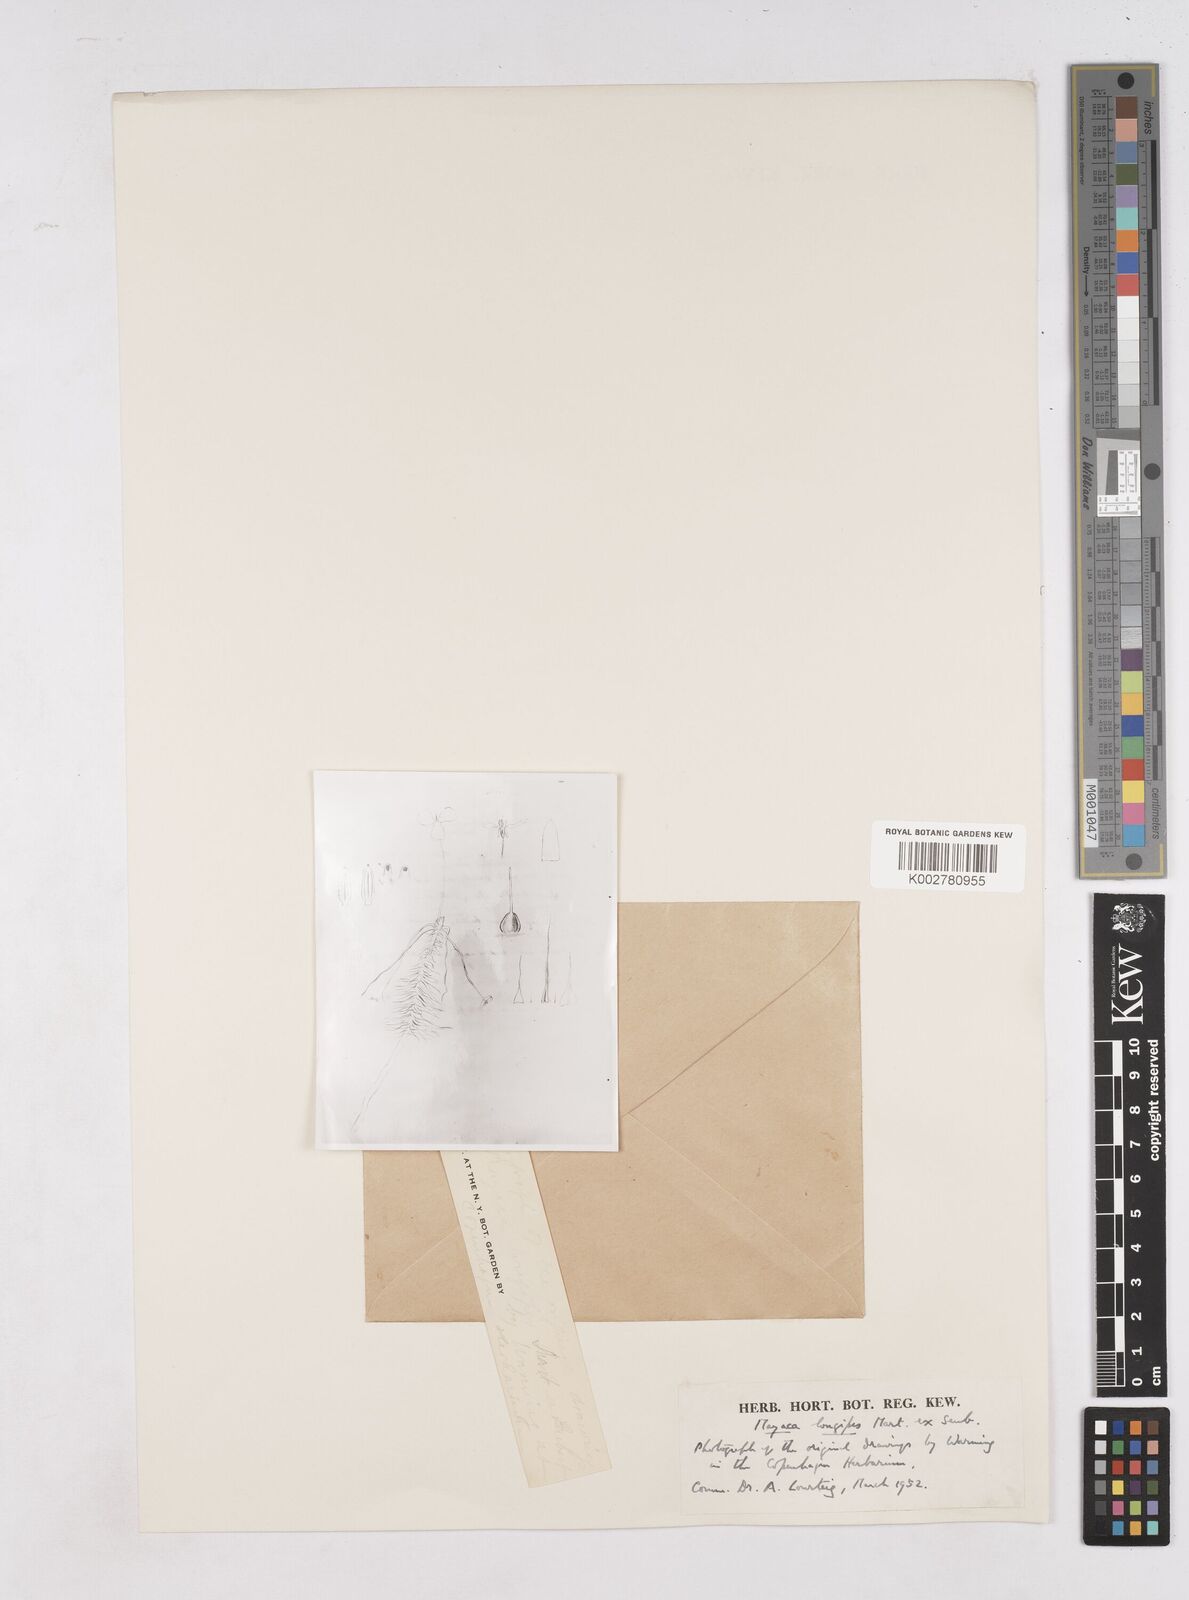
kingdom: Plantae
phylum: Tracheophyta
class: Liliopsida
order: Poales
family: Mayacaceae
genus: Mayaca
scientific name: Mayaca fluviatilis
